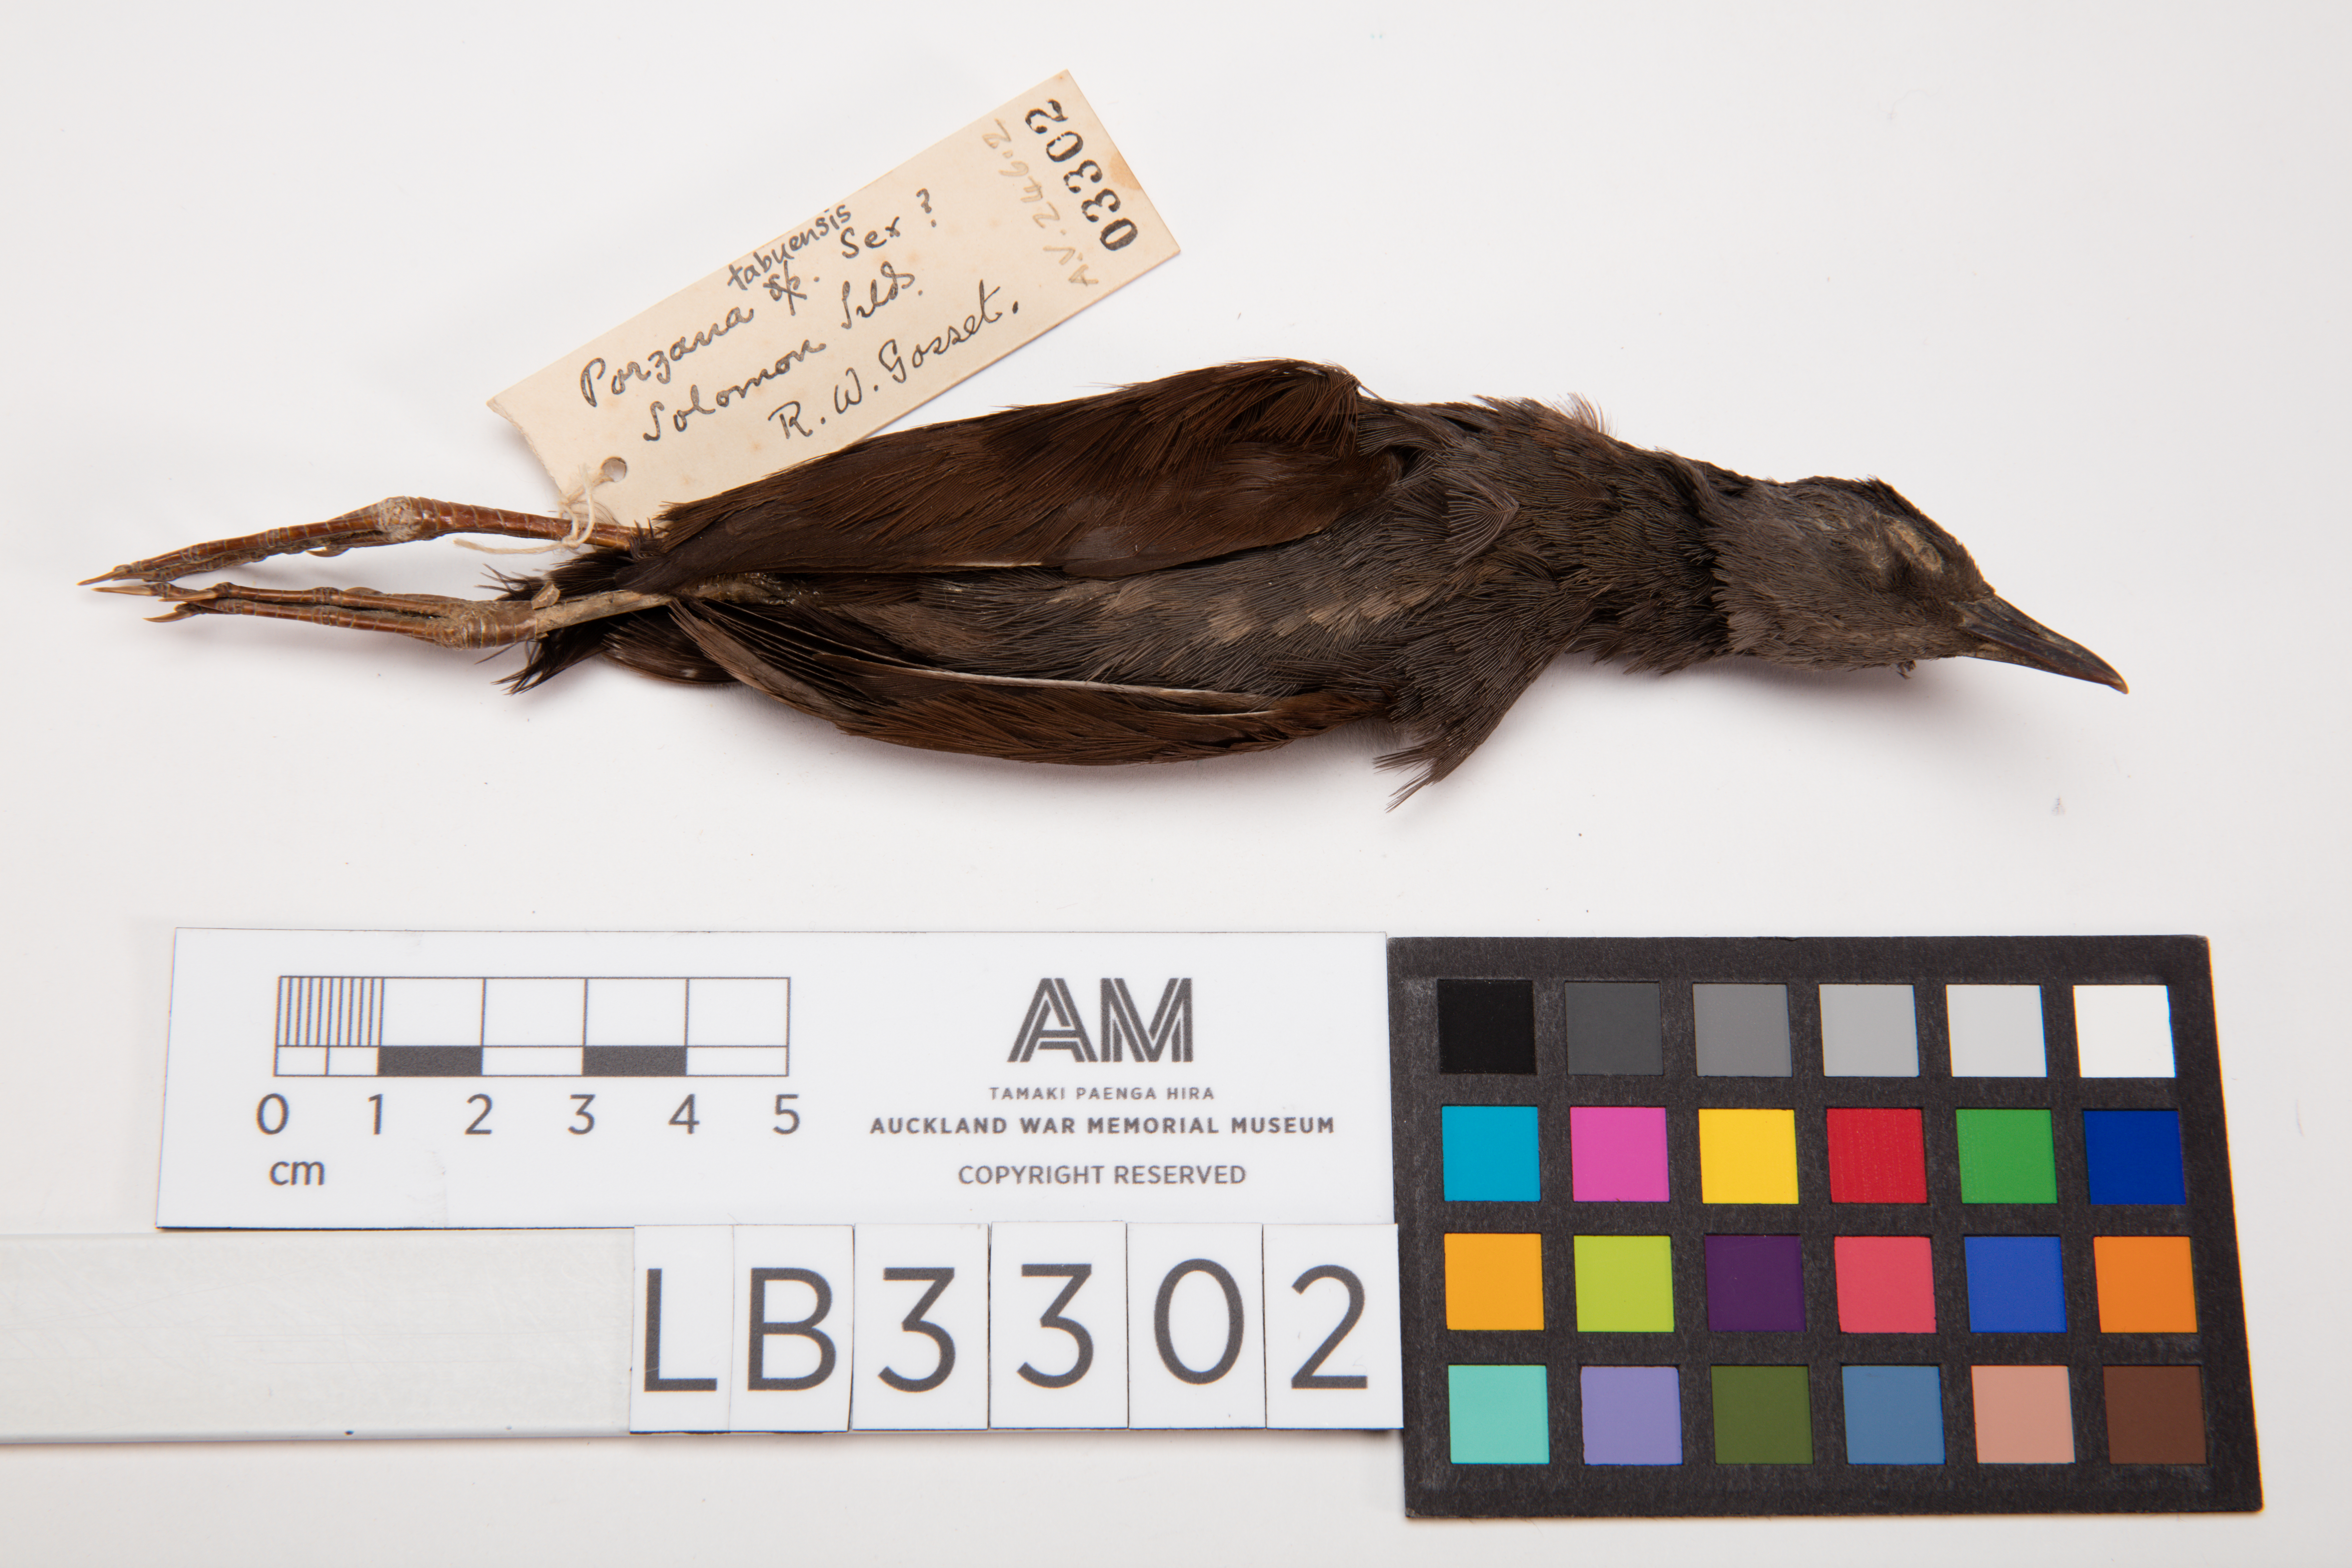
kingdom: Animalia
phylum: Chordata
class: Aves
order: Gruiformes
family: Rallidae
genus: Porzana
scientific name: Porzana tabuensis
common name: Spotless crake
